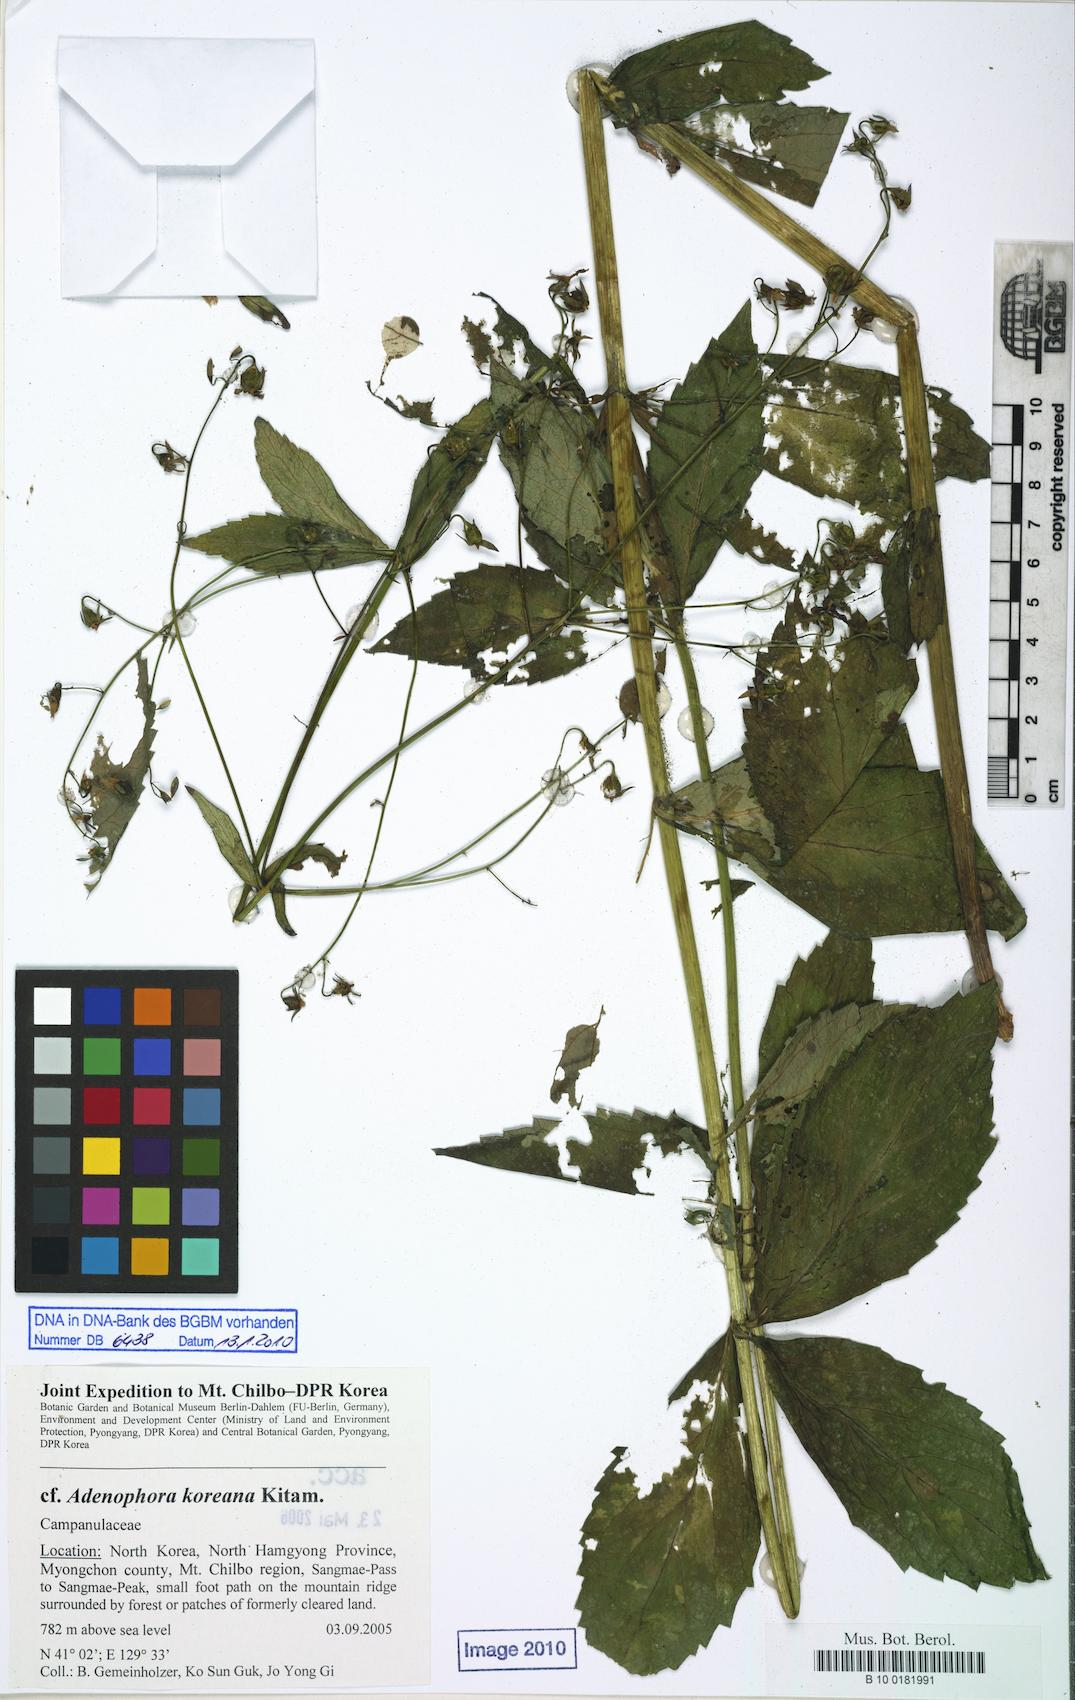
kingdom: Plantae
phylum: Tracheophyta
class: Magnoliopsida
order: Asterales
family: Campanulaceae
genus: Adenophora
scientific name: Adenophora divaricata
